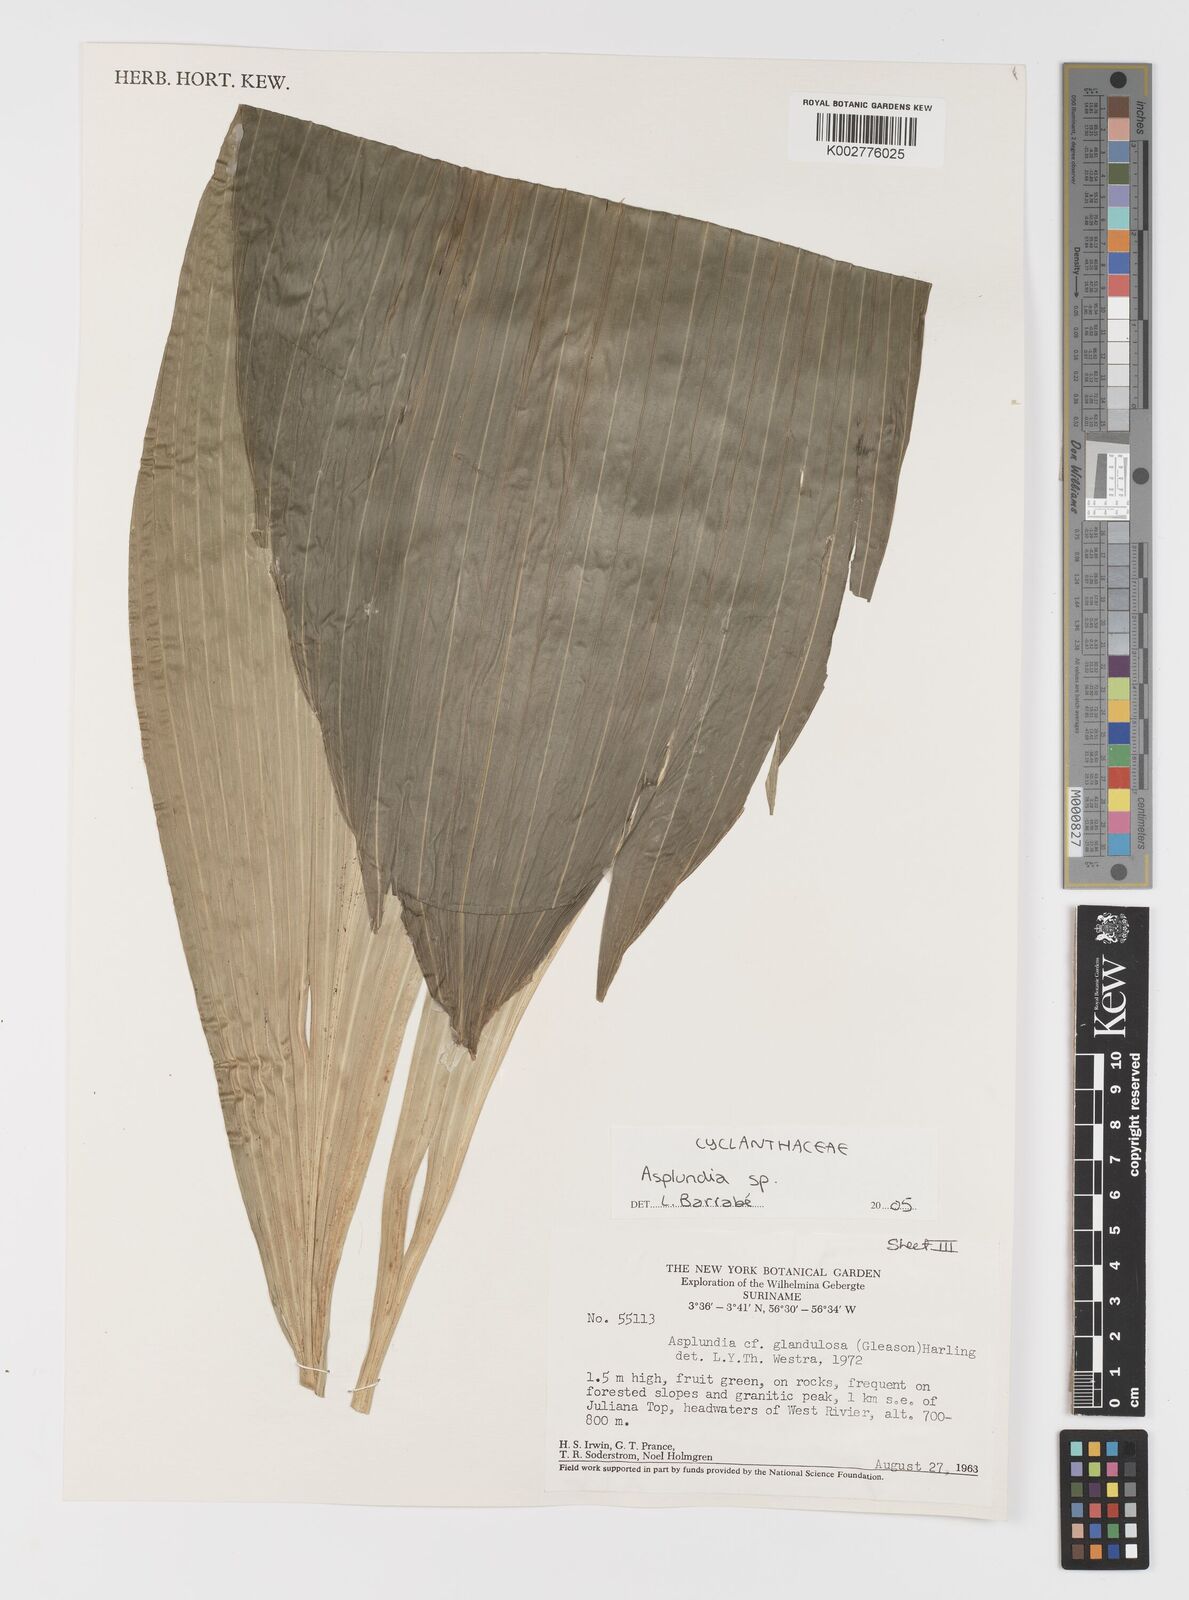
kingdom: Plantae
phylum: Tracheophyta
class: Liliopsida
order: Pandanales
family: Cyclanthaceae
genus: Asplundia
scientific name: Asplundia
